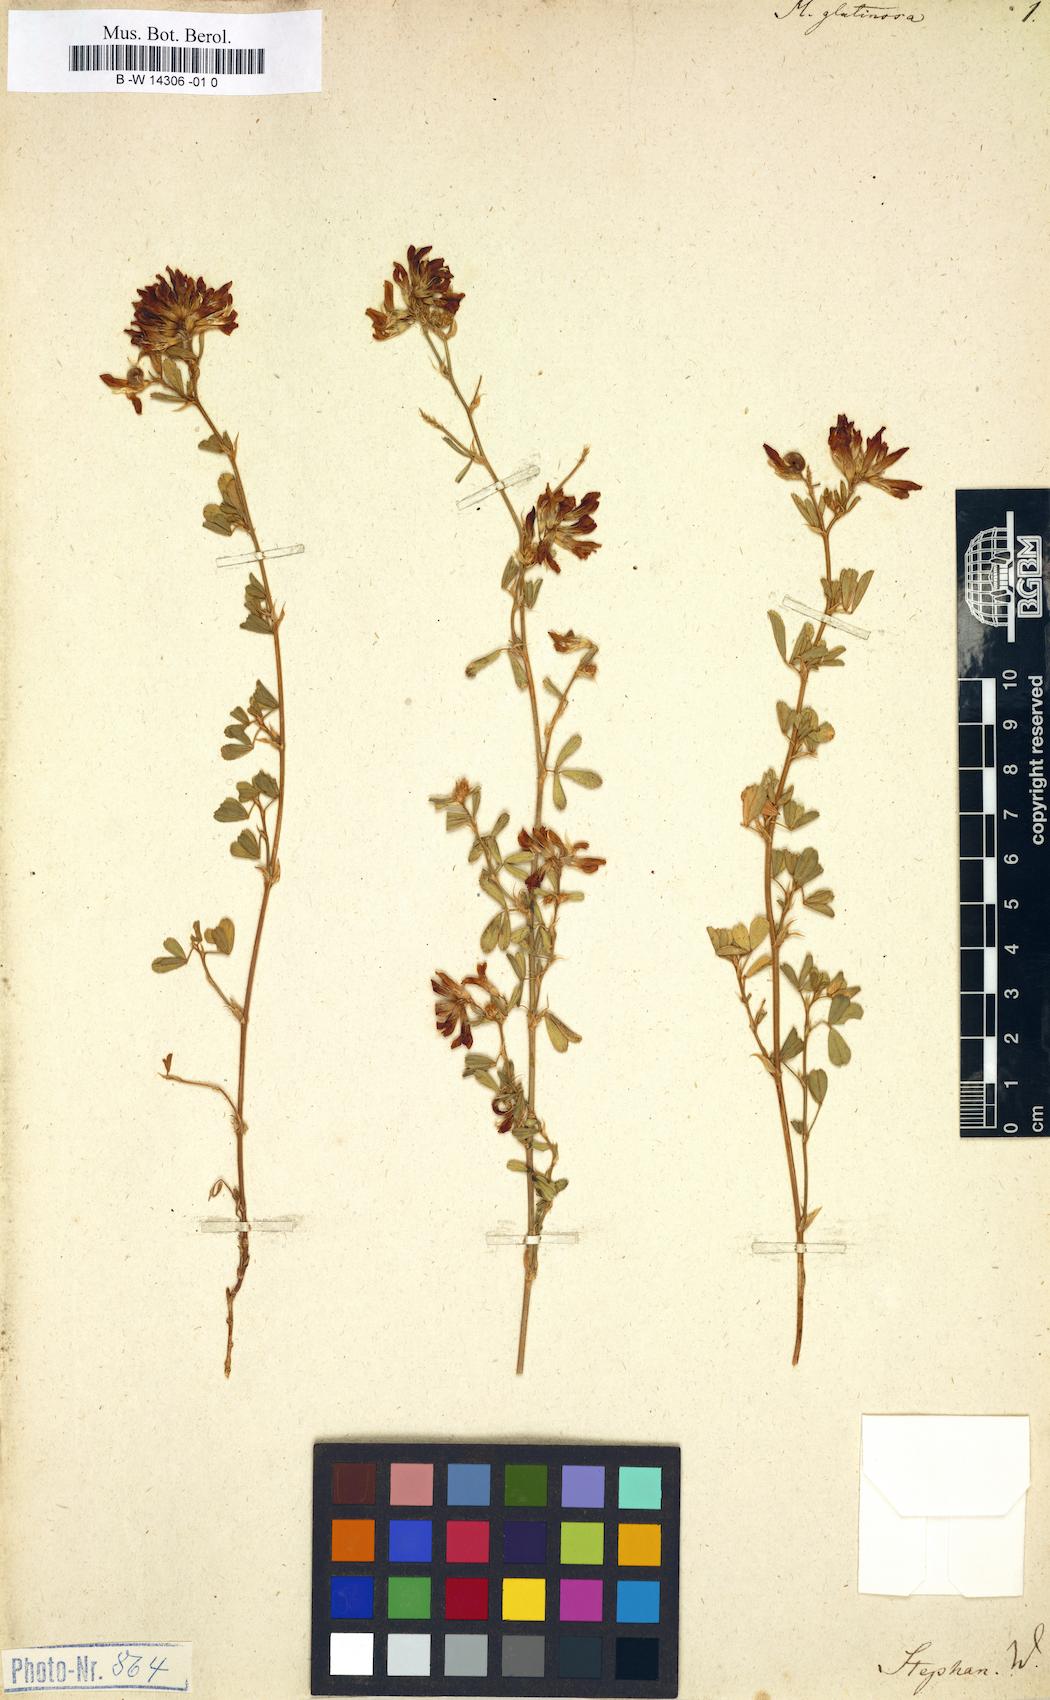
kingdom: Plantae
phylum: Tracheophyta
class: Magnoliopsida
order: Fabales
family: Fabaceae
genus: Medicago
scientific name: Medicago sativa
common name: Alfalfa
